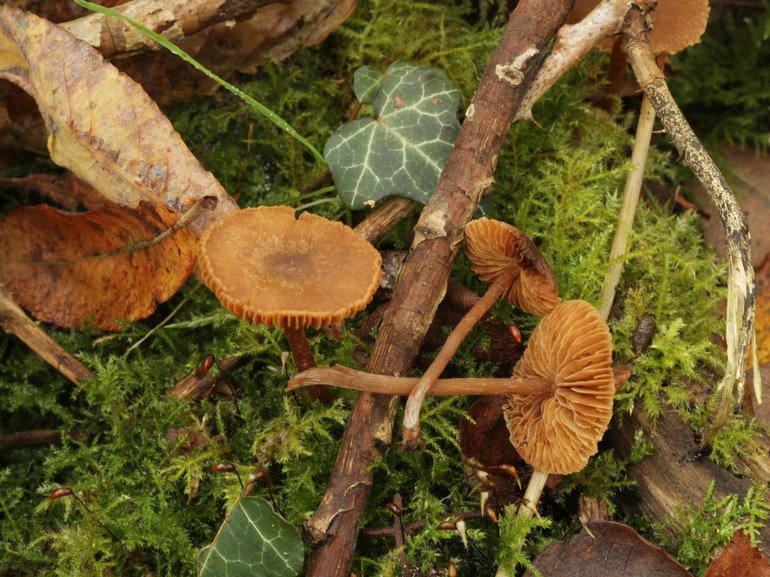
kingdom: Fungi
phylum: Basidiomycota
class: Agaricomycetes
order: Agaricales
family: Hymenogastraceae
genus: Naucoria
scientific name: Naucoria escharioides
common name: lys elle-knaphat
